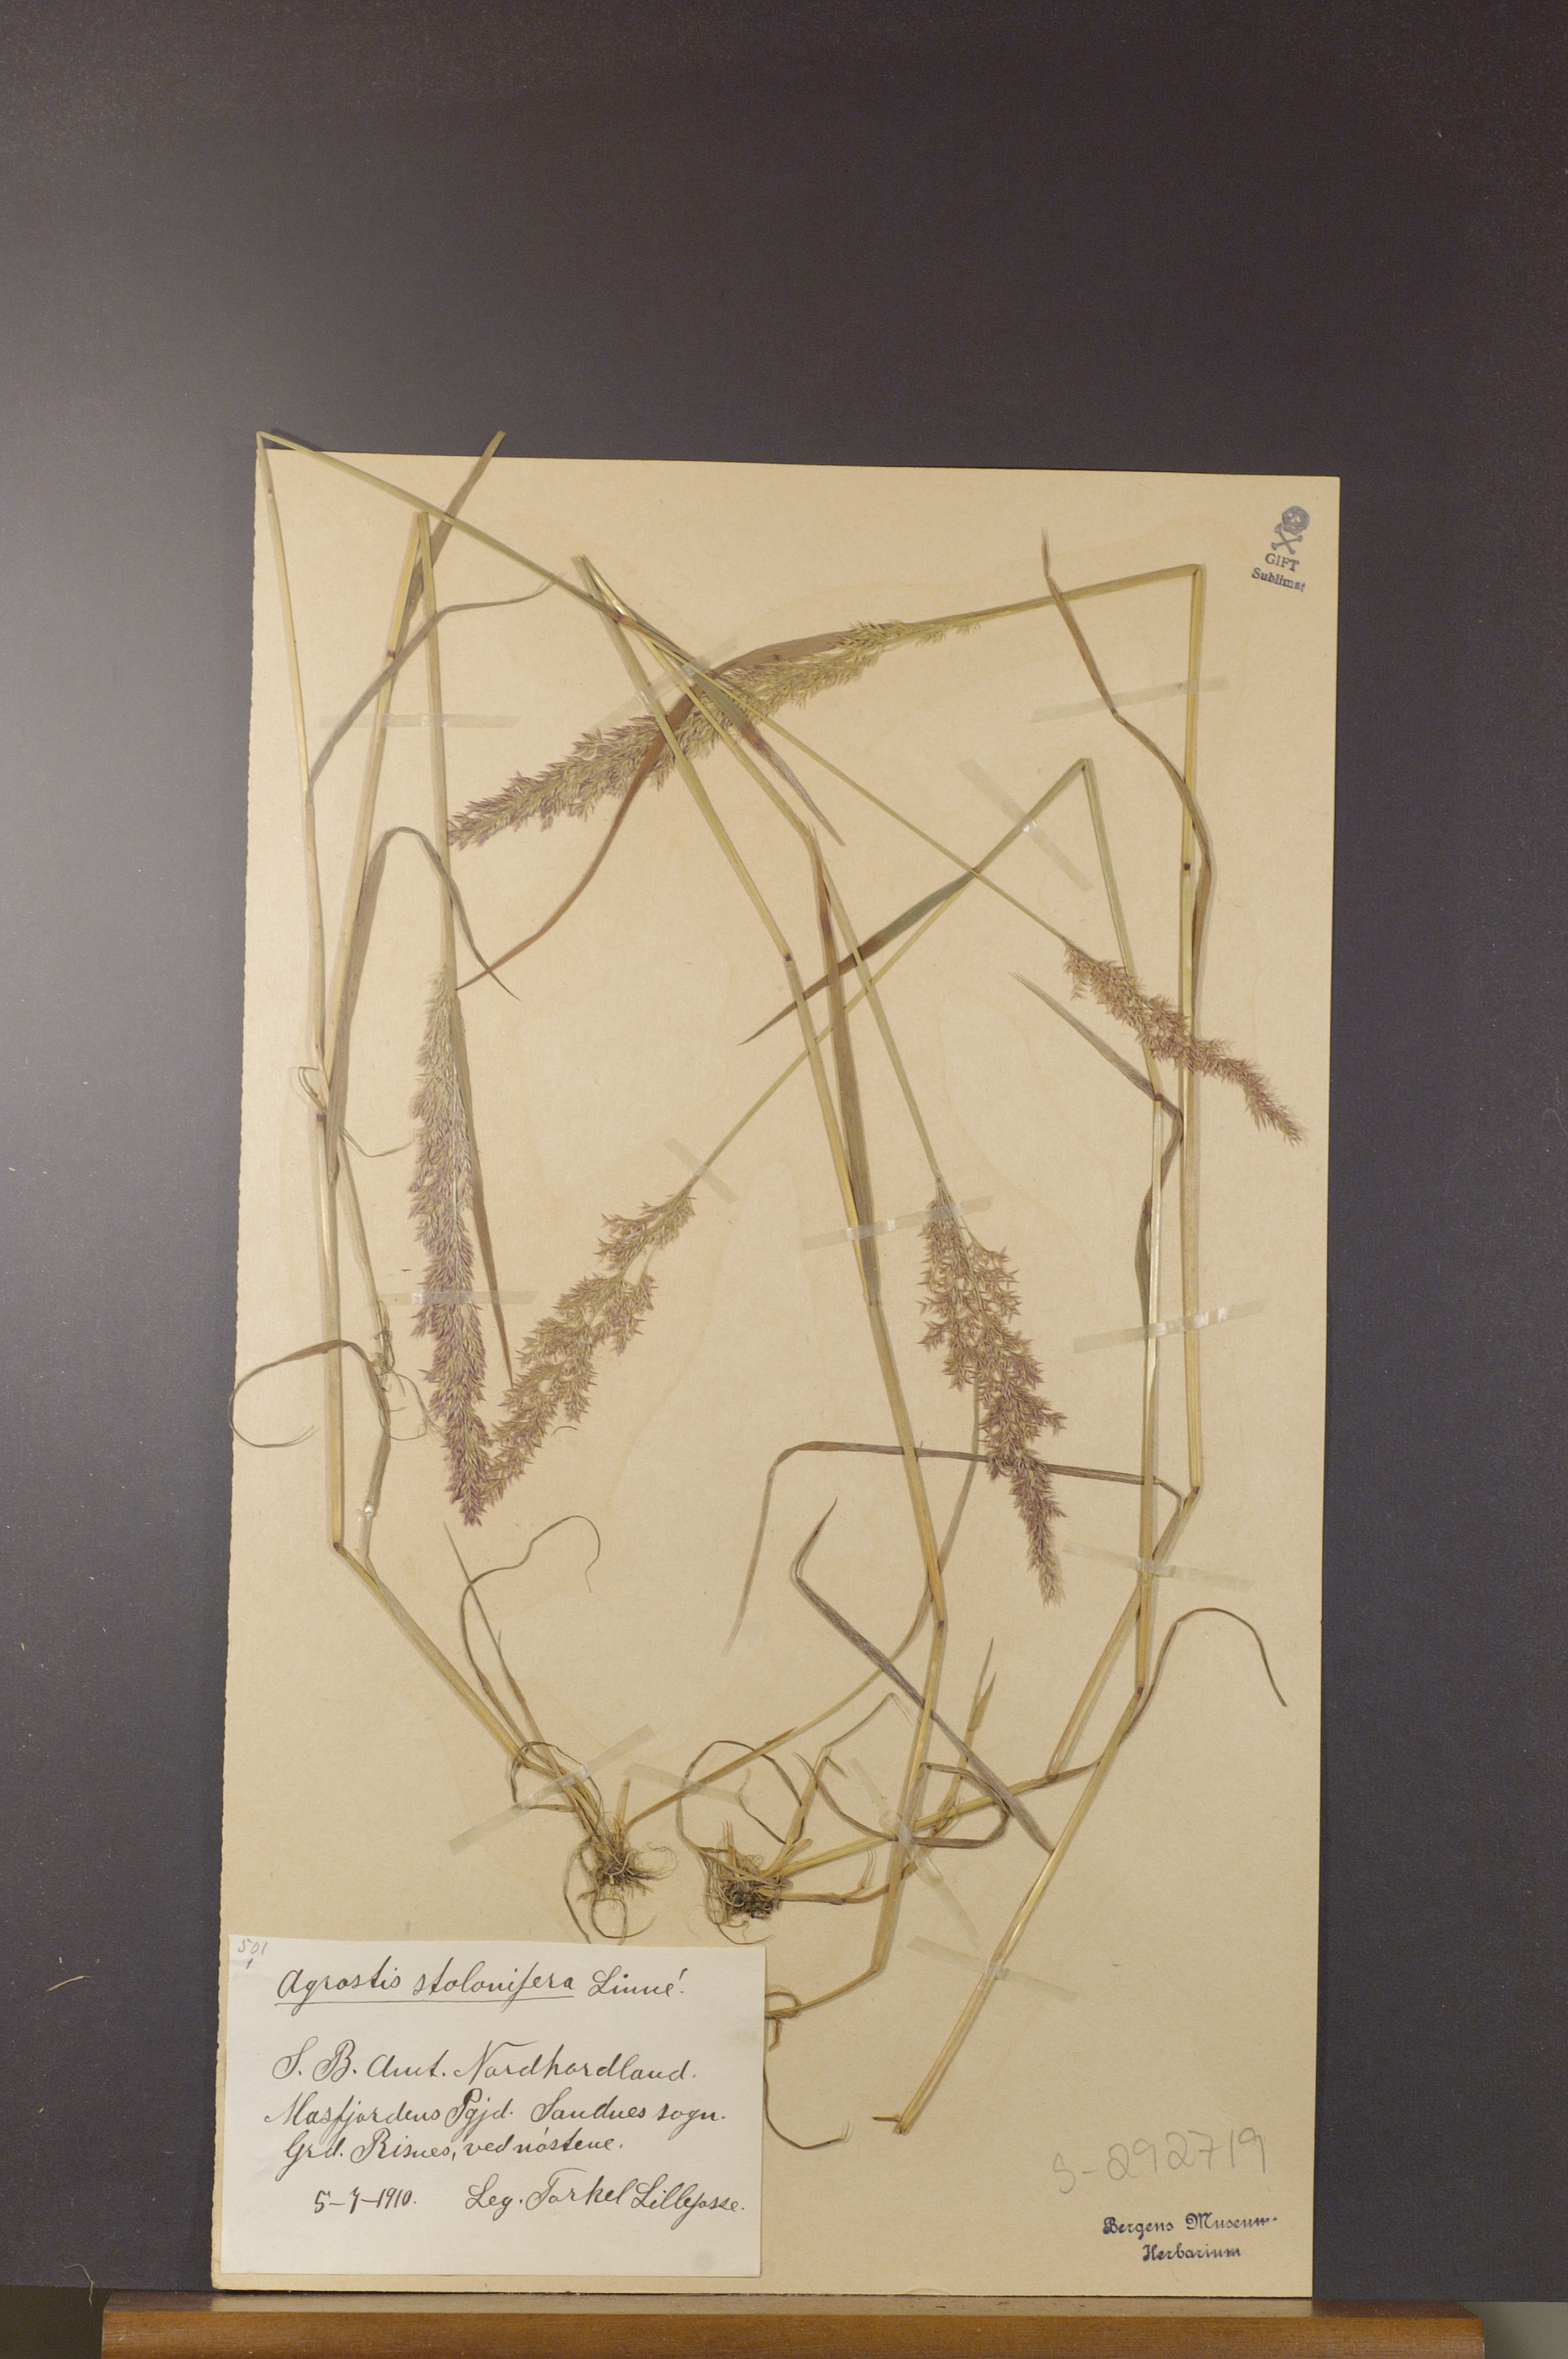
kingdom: Plantae
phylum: Tracheophyta
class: Liliopsida
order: Poales
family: Poaceae
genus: Agrostis
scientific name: Agrostis stolonifera
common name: Creeping bentgrass
